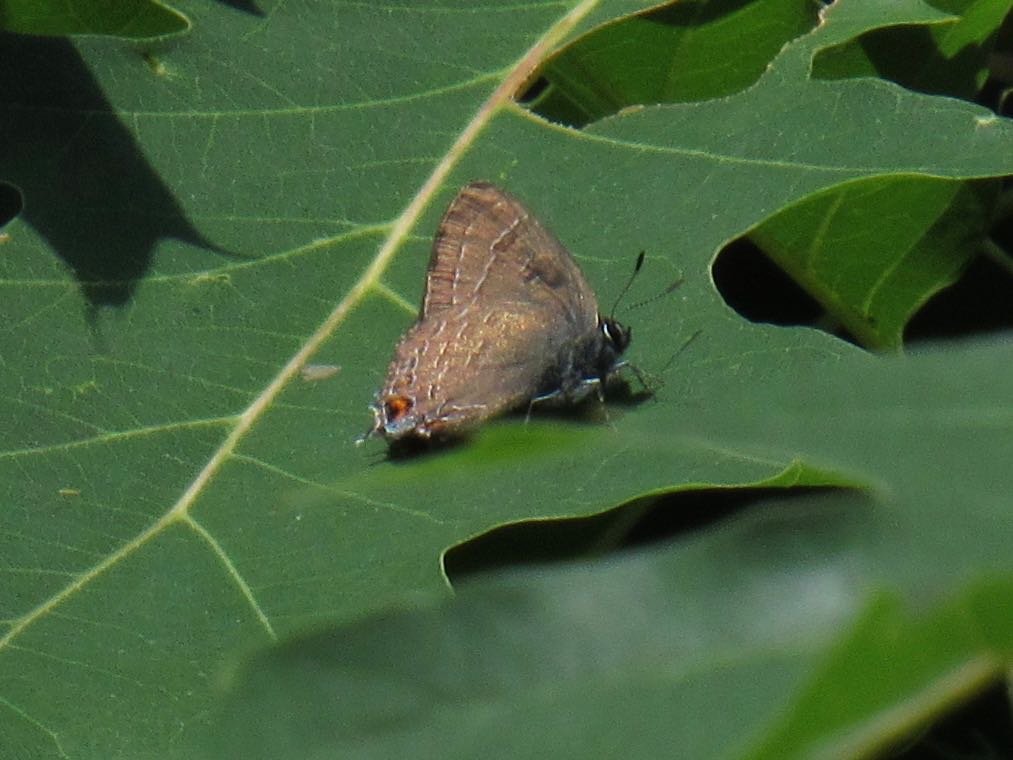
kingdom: Animalia
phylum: Arthropoda
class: Insecta
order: Lepidoptera
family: Lycaenidae
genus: Satyrium
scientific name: Satyrium calanus
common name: Banded Hairstreak
